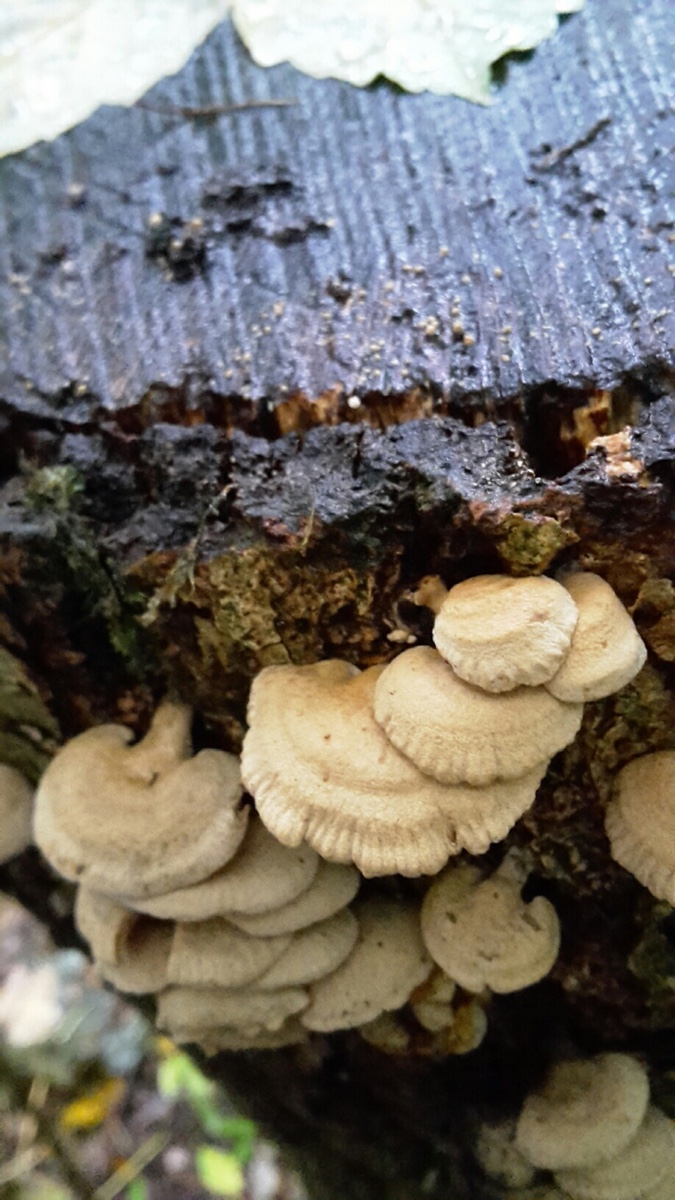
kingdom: Fungi
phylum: Basidiomycota
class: Agaricomycetes
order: Agaricales
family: Mycenaceae
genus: Panellus
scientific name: Panellus stipticus
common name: kliddet epaulethat
